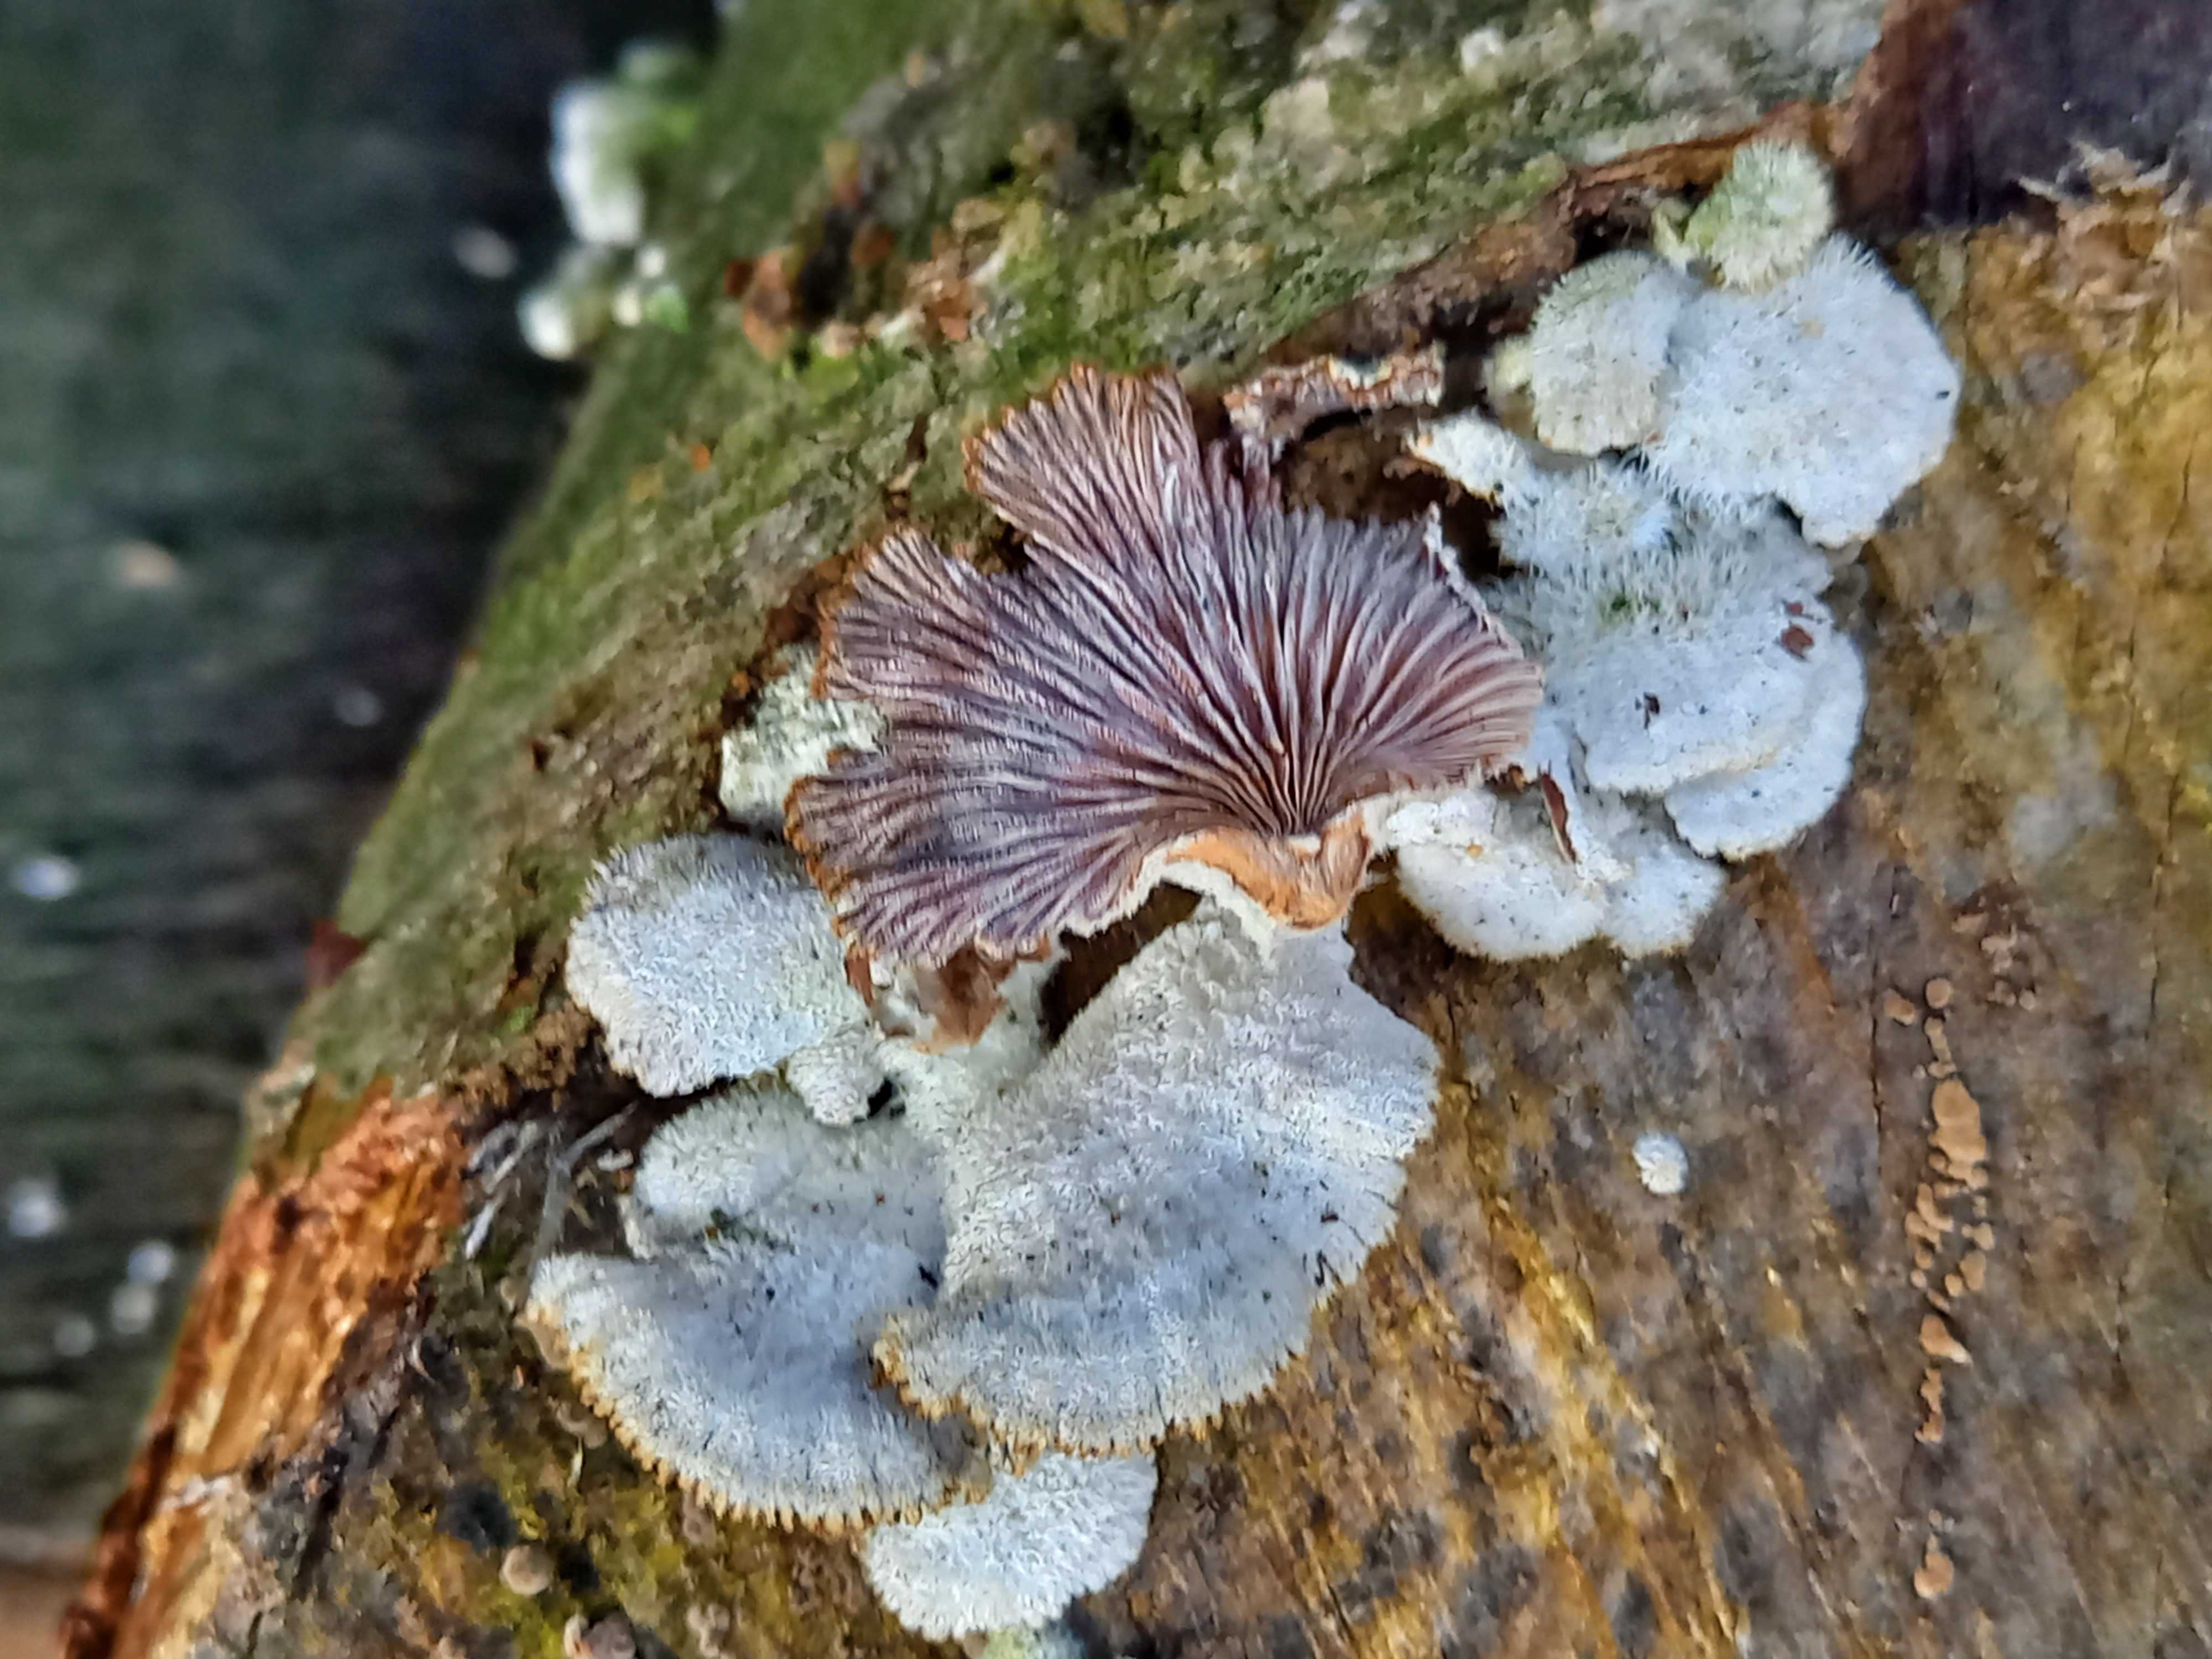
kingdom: Fungi
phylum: Basidiomycota
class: Agaricomycetes
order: Agaricales
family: Mycenaceae
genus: Panellus
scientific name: Panellus stipticus
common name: kliddet epaulethat
